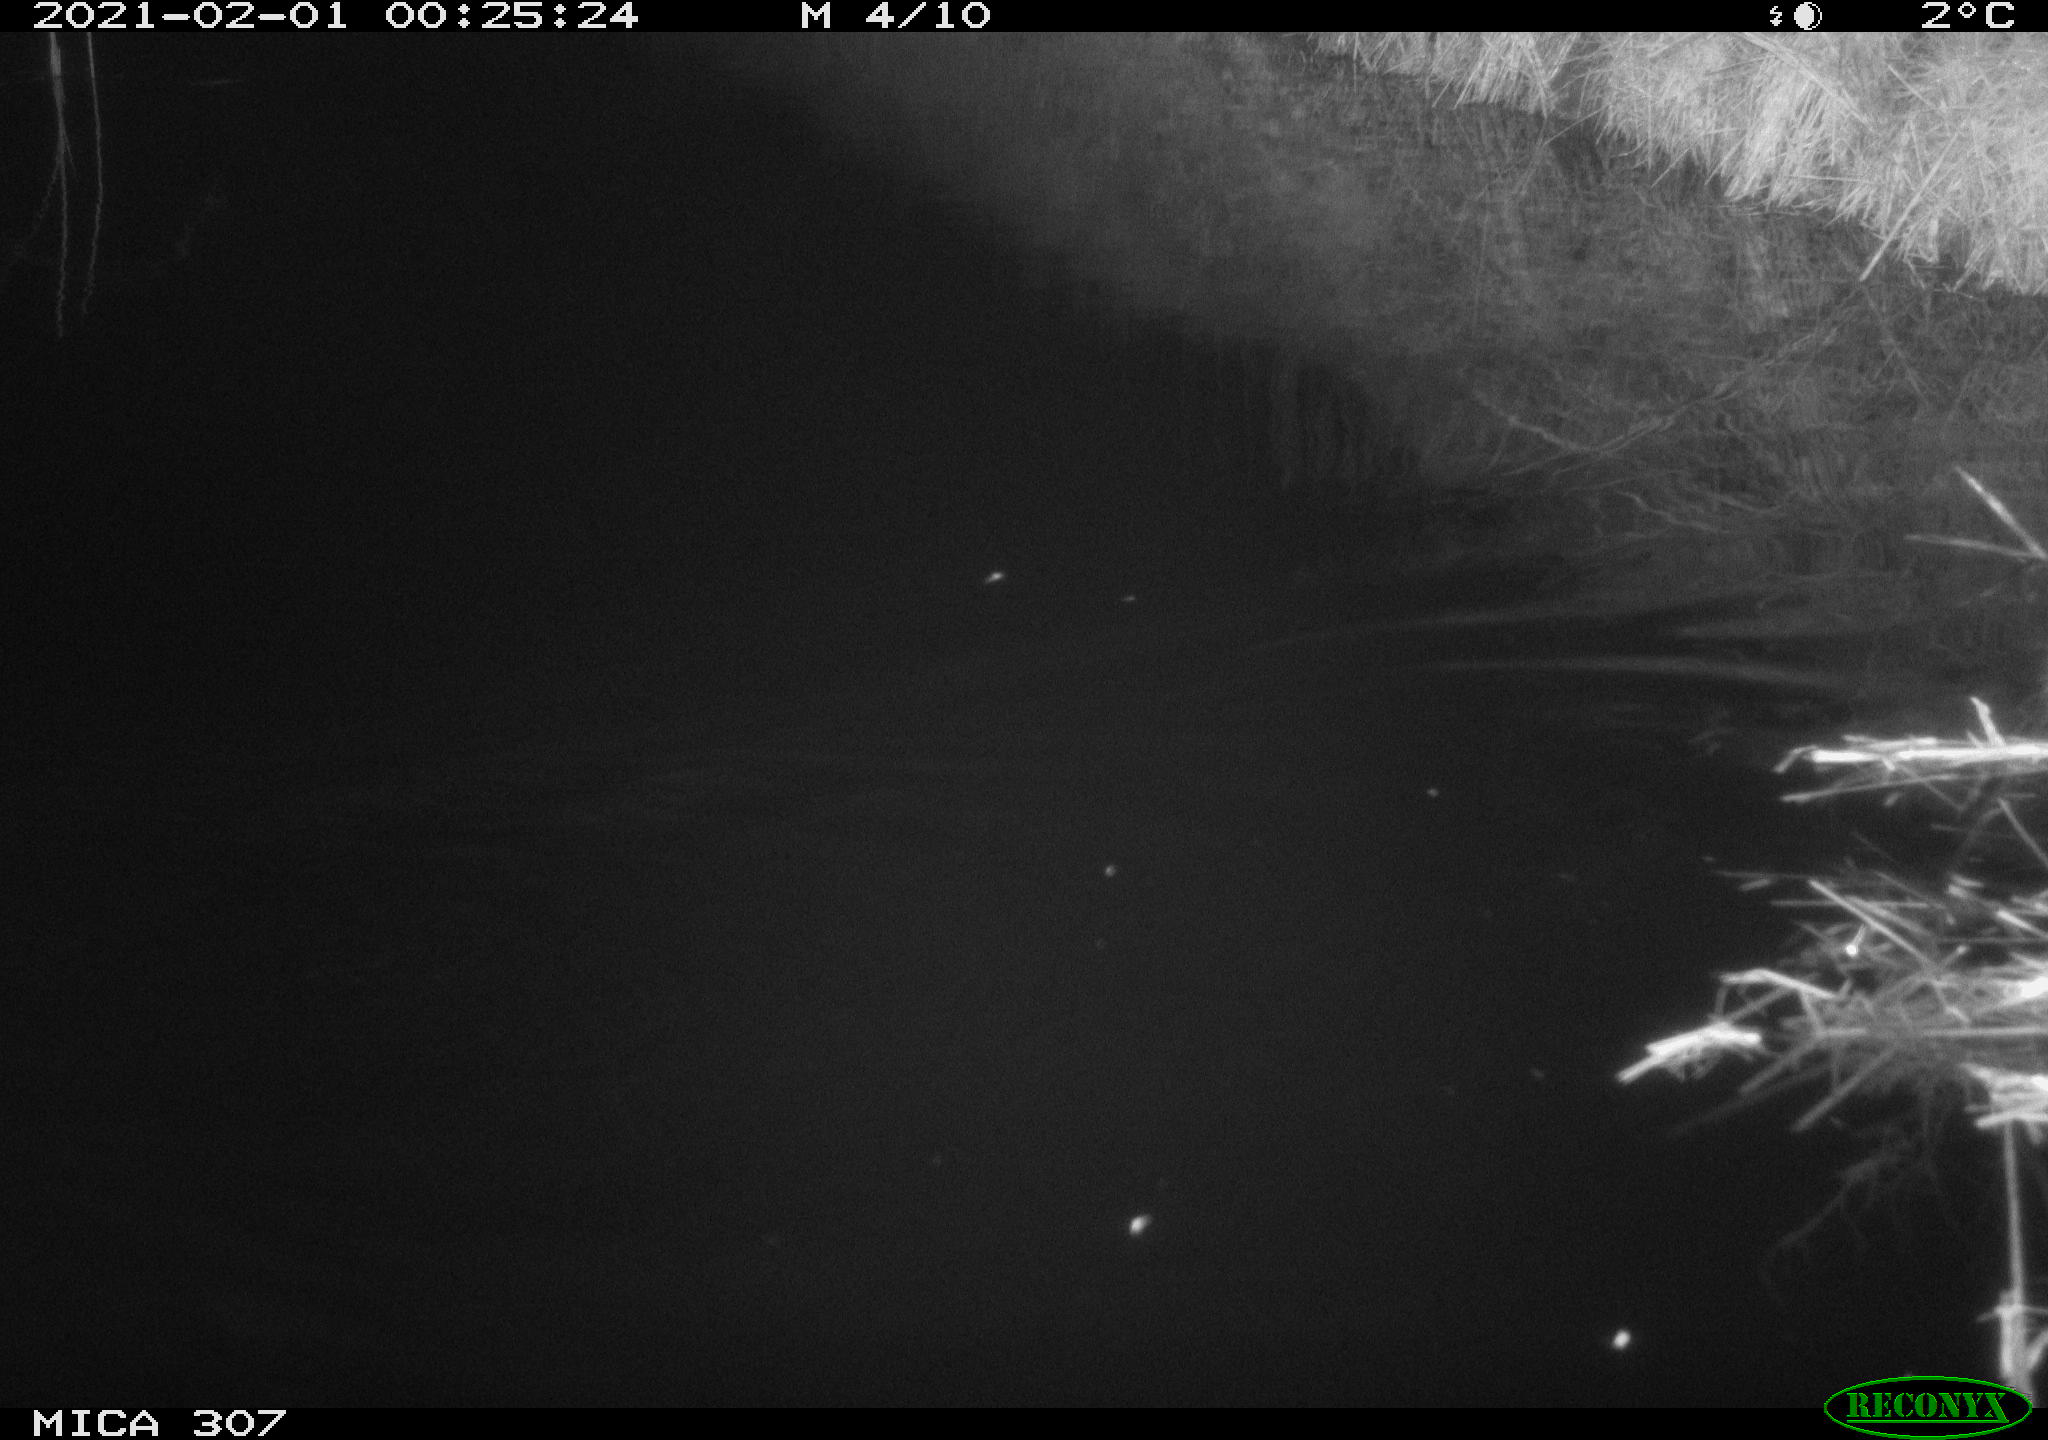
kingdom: Animalia
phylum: Chordata
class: Mammalia
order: Rodentia
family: Muridae
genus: Rattus
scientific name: Rattus norvegicus
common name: Brown rat
